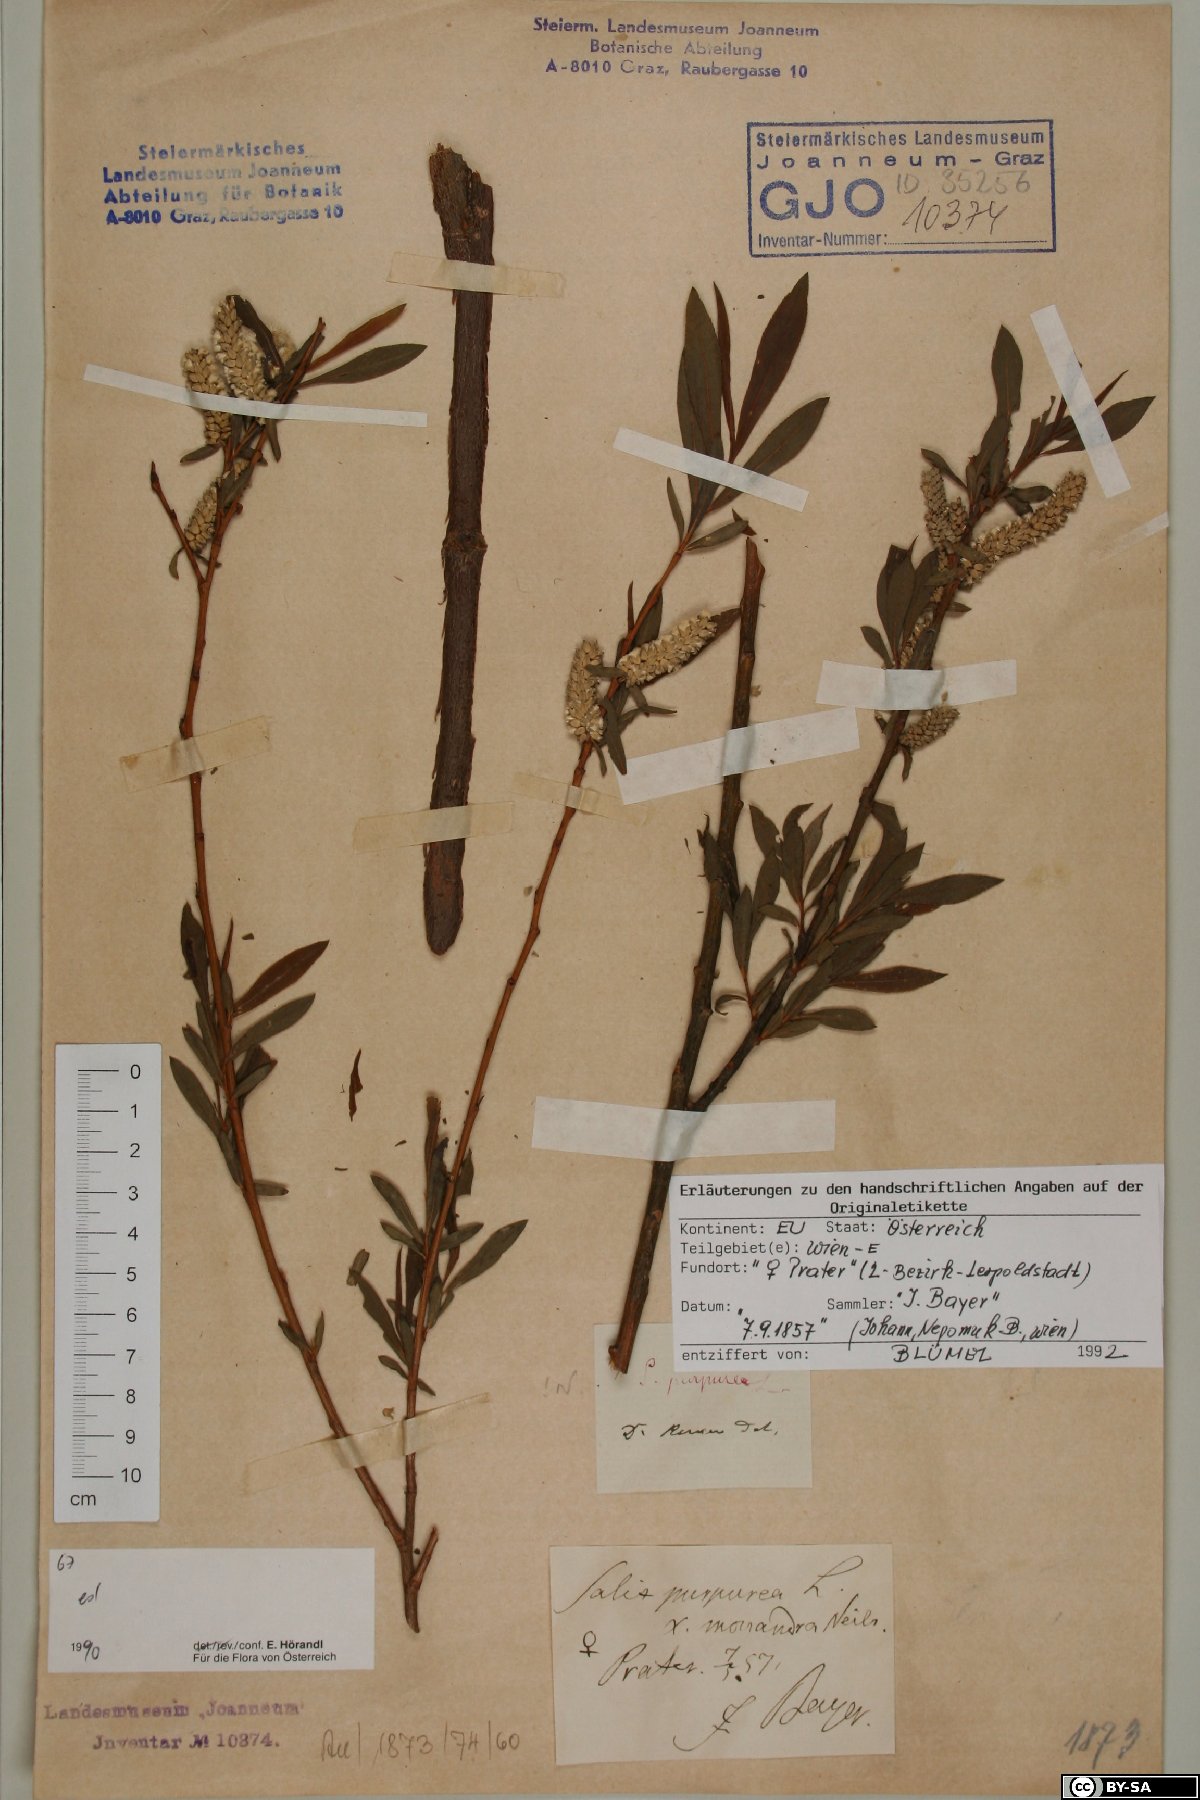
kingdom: Plantae
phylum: Tracheophyta
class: Magnoliopsida
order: Malpighiales
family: Salicaceae
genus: Salix
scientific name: Salix purpurea
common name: Purple willow
